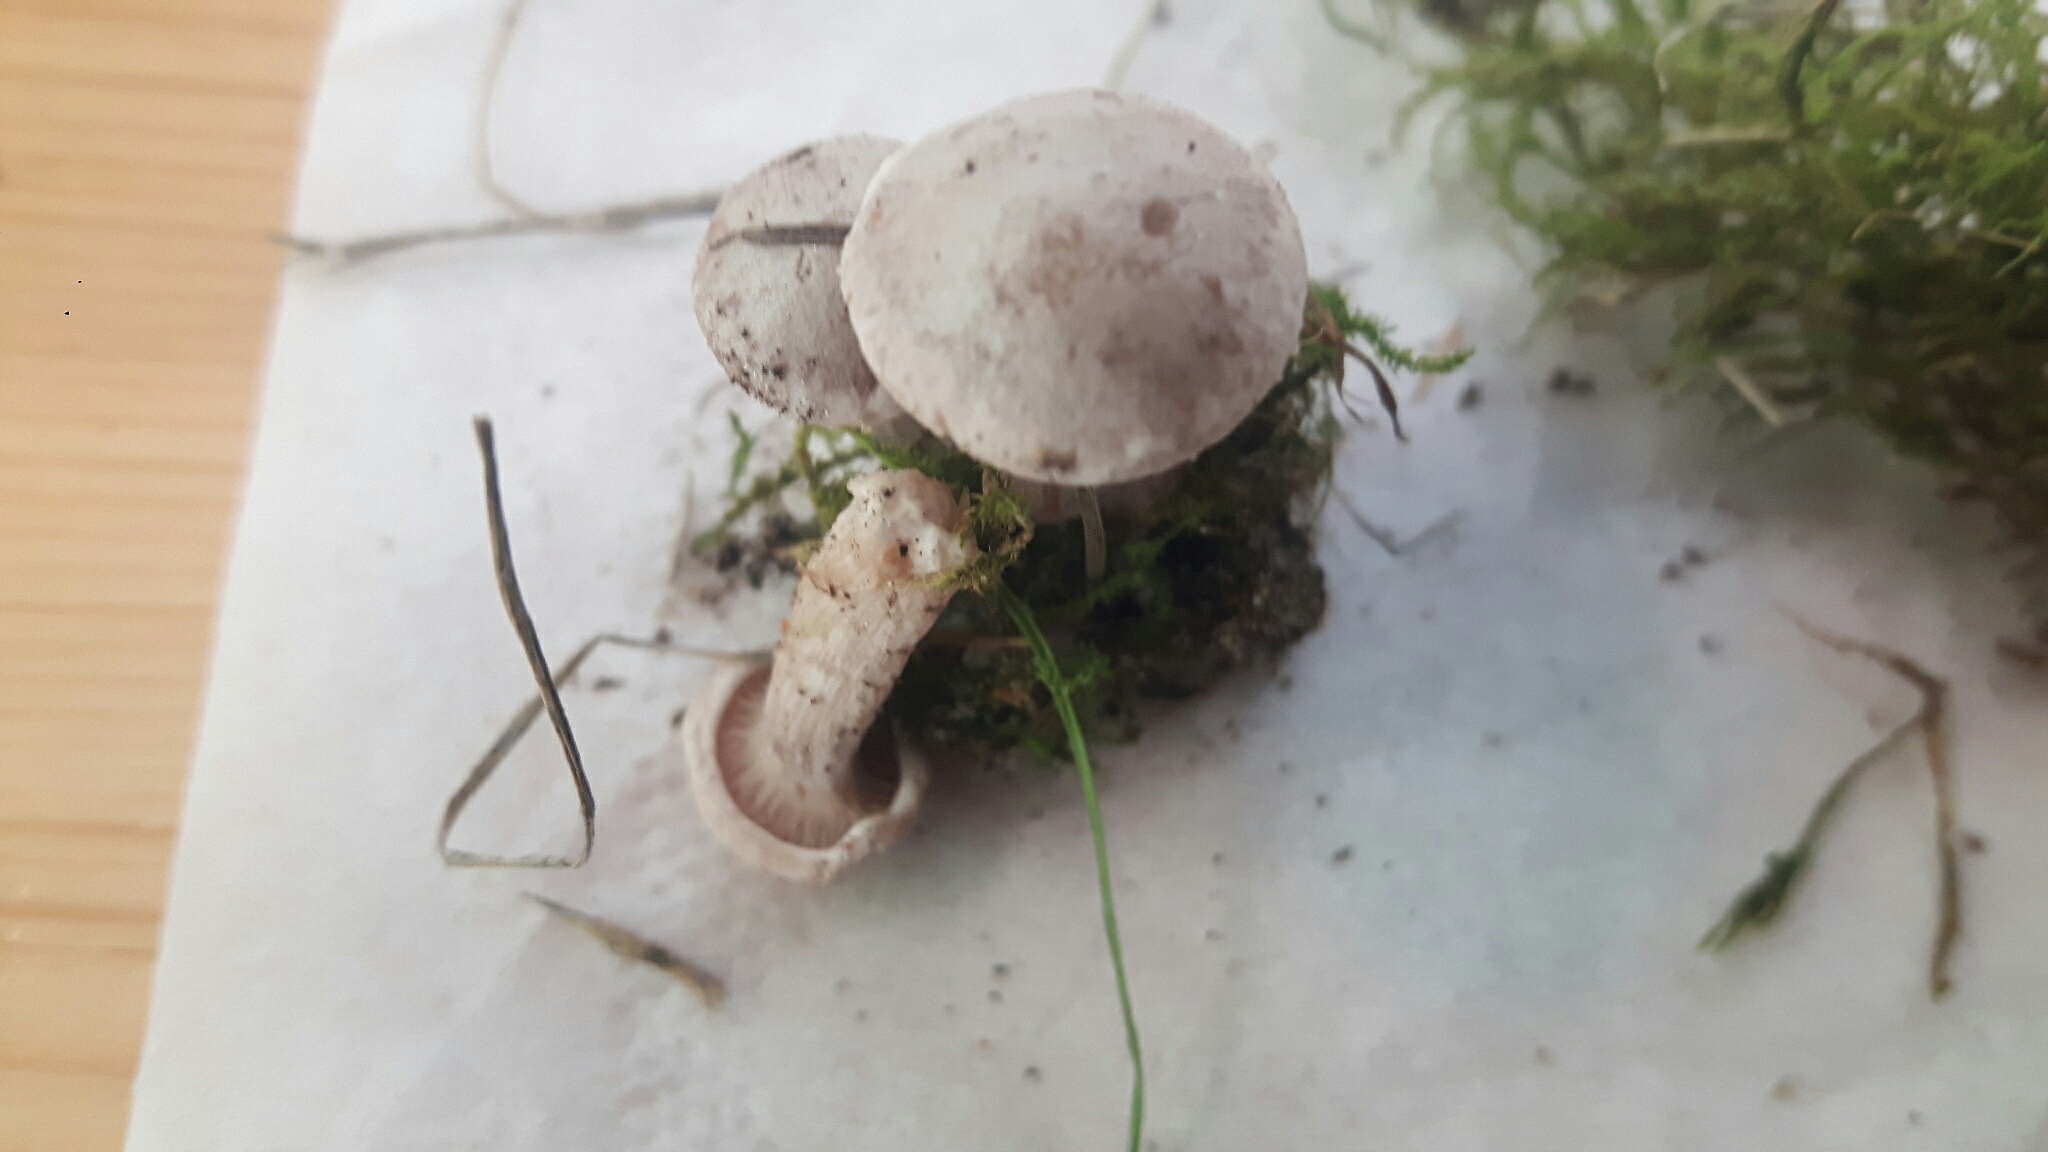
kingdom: Fungi
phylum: Basidiomycota
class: Agaricomycetes
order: Agaricales
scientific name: Agaricales
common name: champignonordenen
